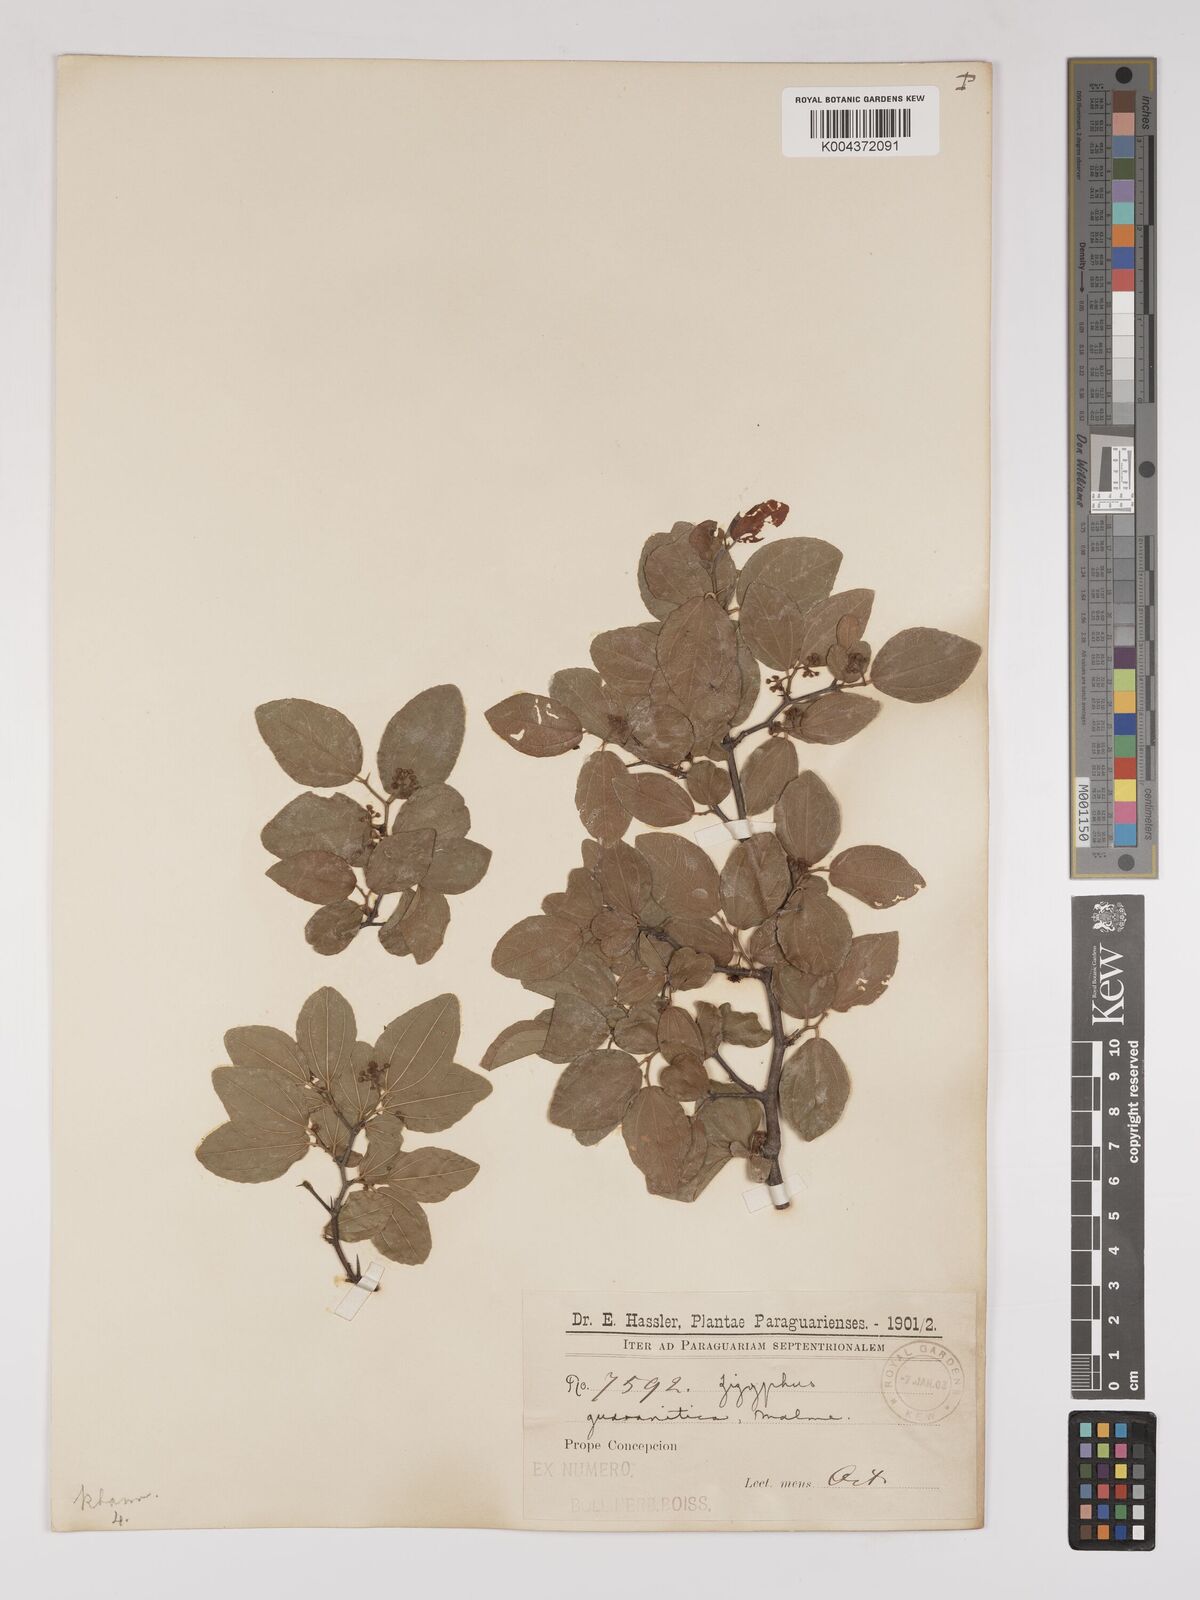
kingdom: Plantae
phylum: Tracheophyta
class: Magnoliopsida
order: Rosales
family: Rhamnaceae
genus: Ziziphus
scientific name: Ziziphus guaranitica
